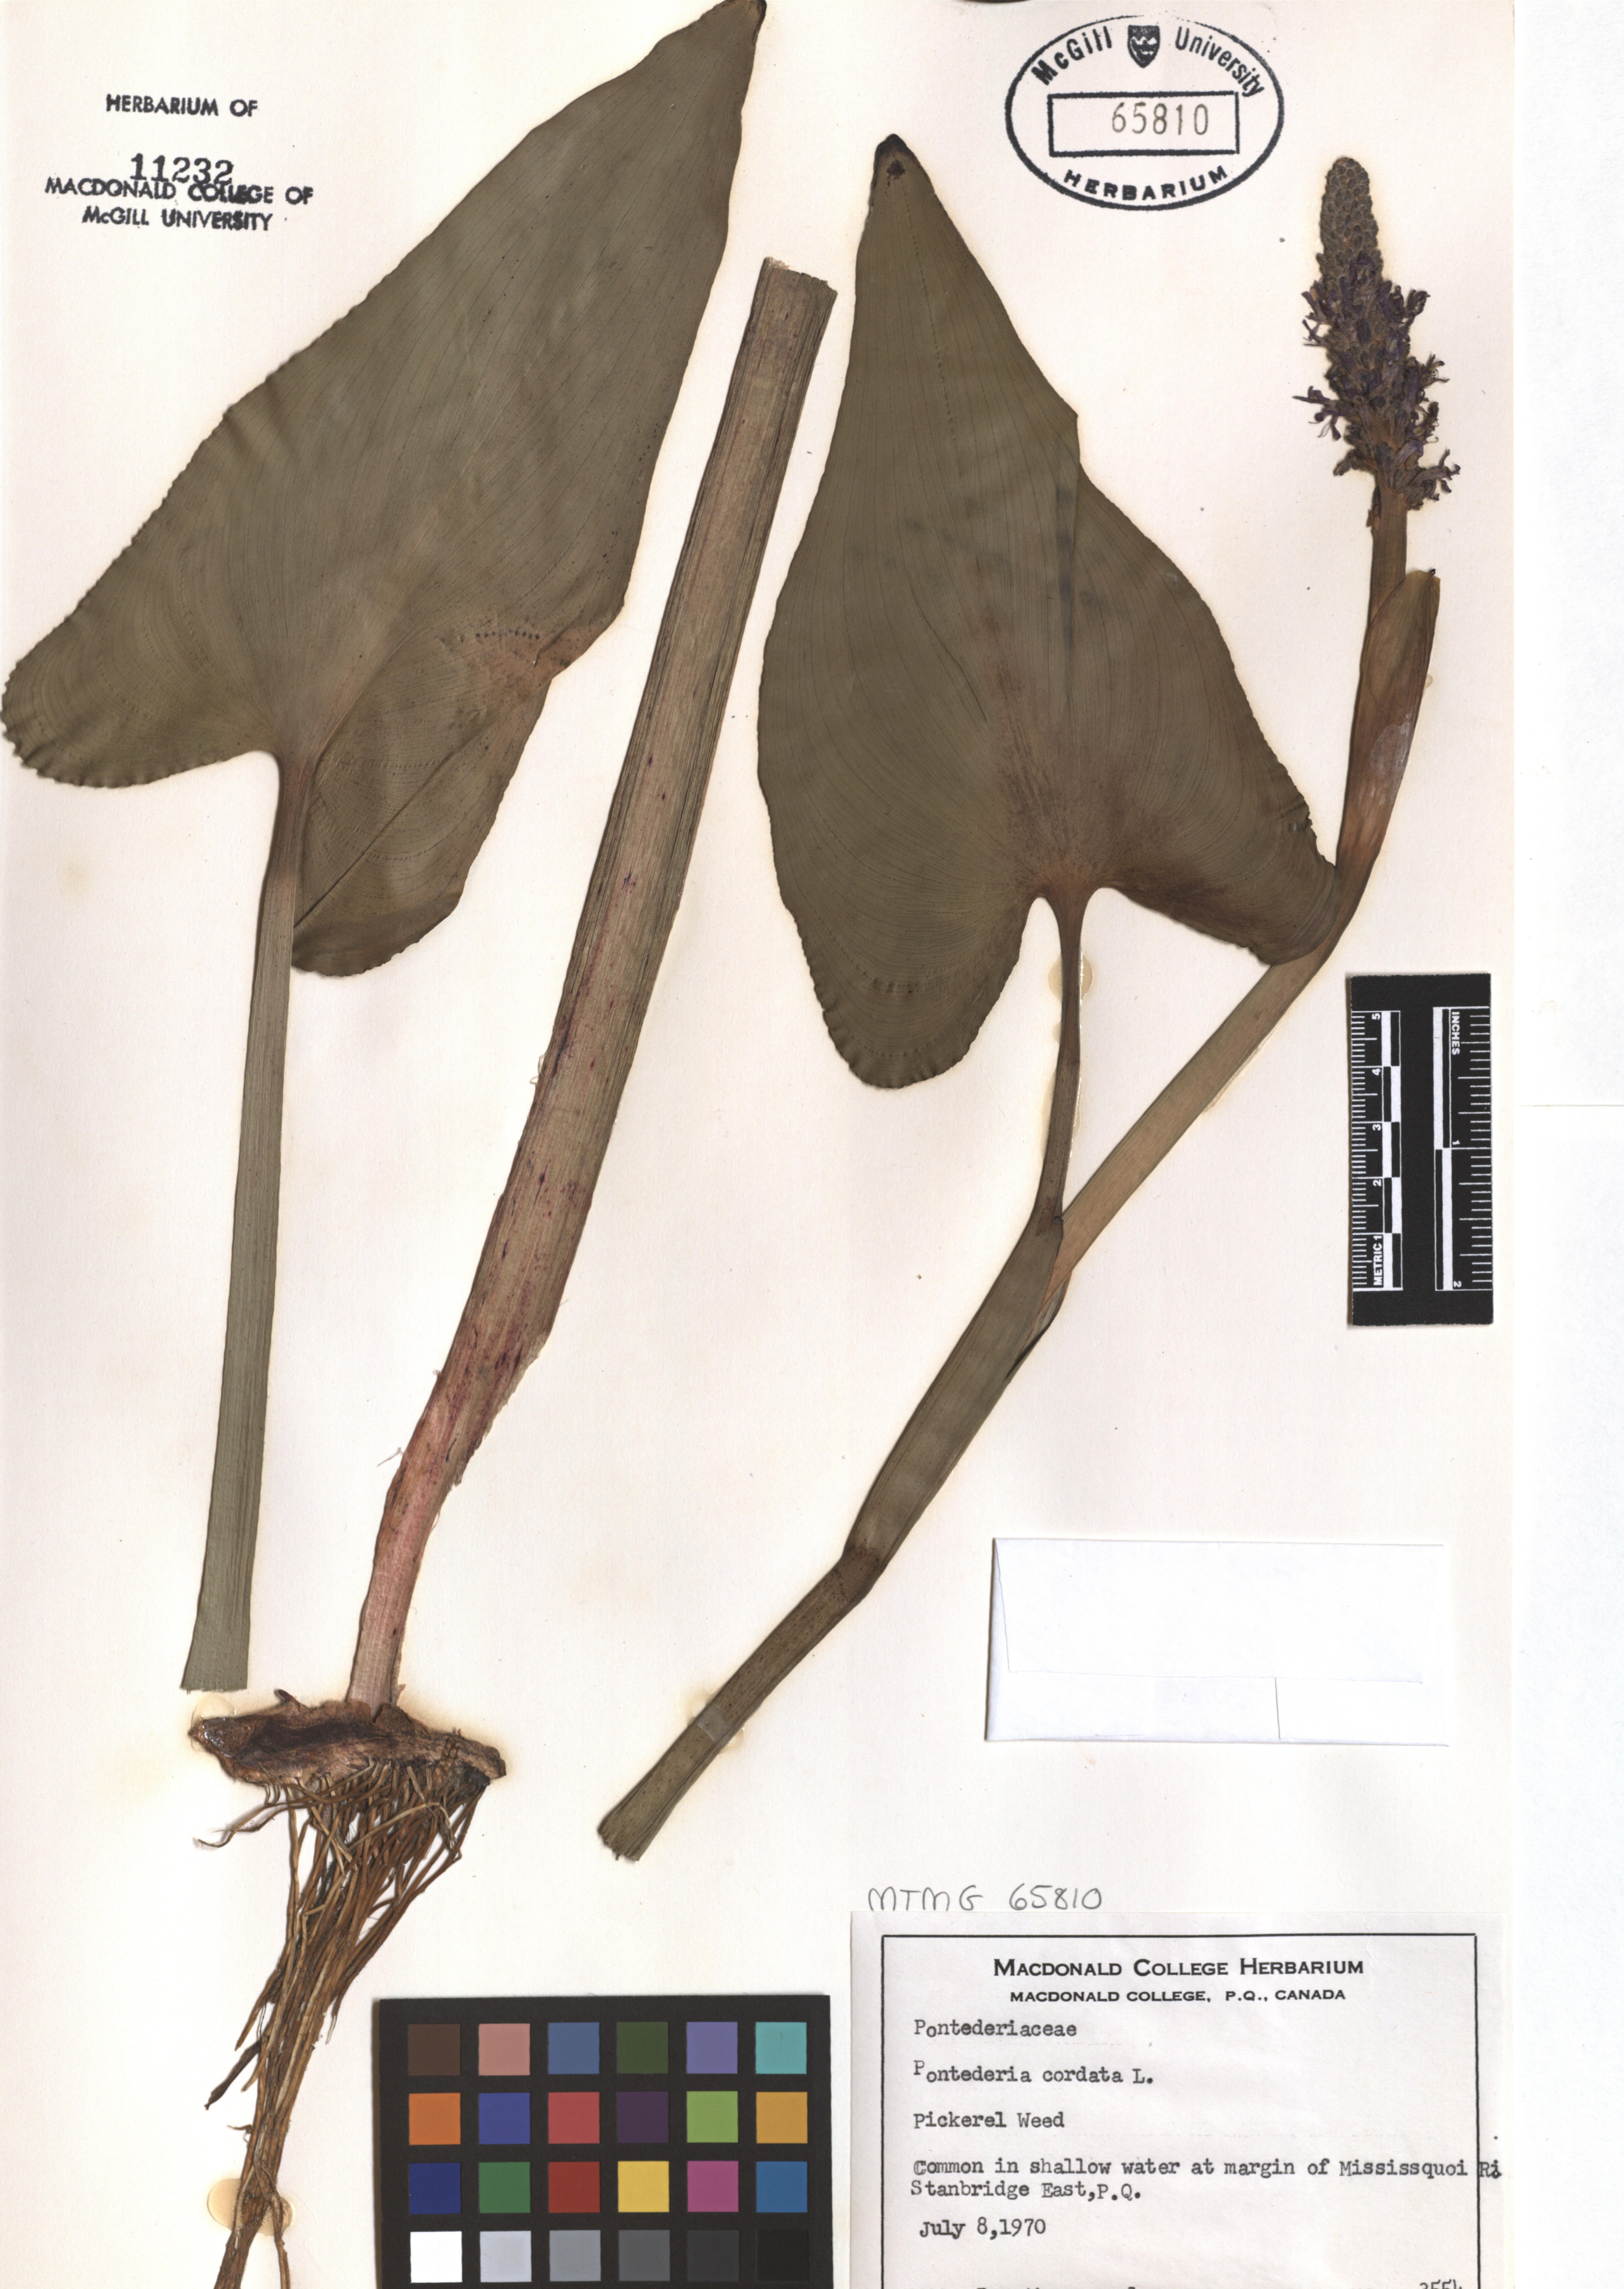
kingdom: Plantae
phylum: Tracheophyta
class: Liliopsida
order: Commelinales
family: Pontederiaceae
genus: Pontederia
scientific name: Pontederia cordata
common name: Pickerelweed
